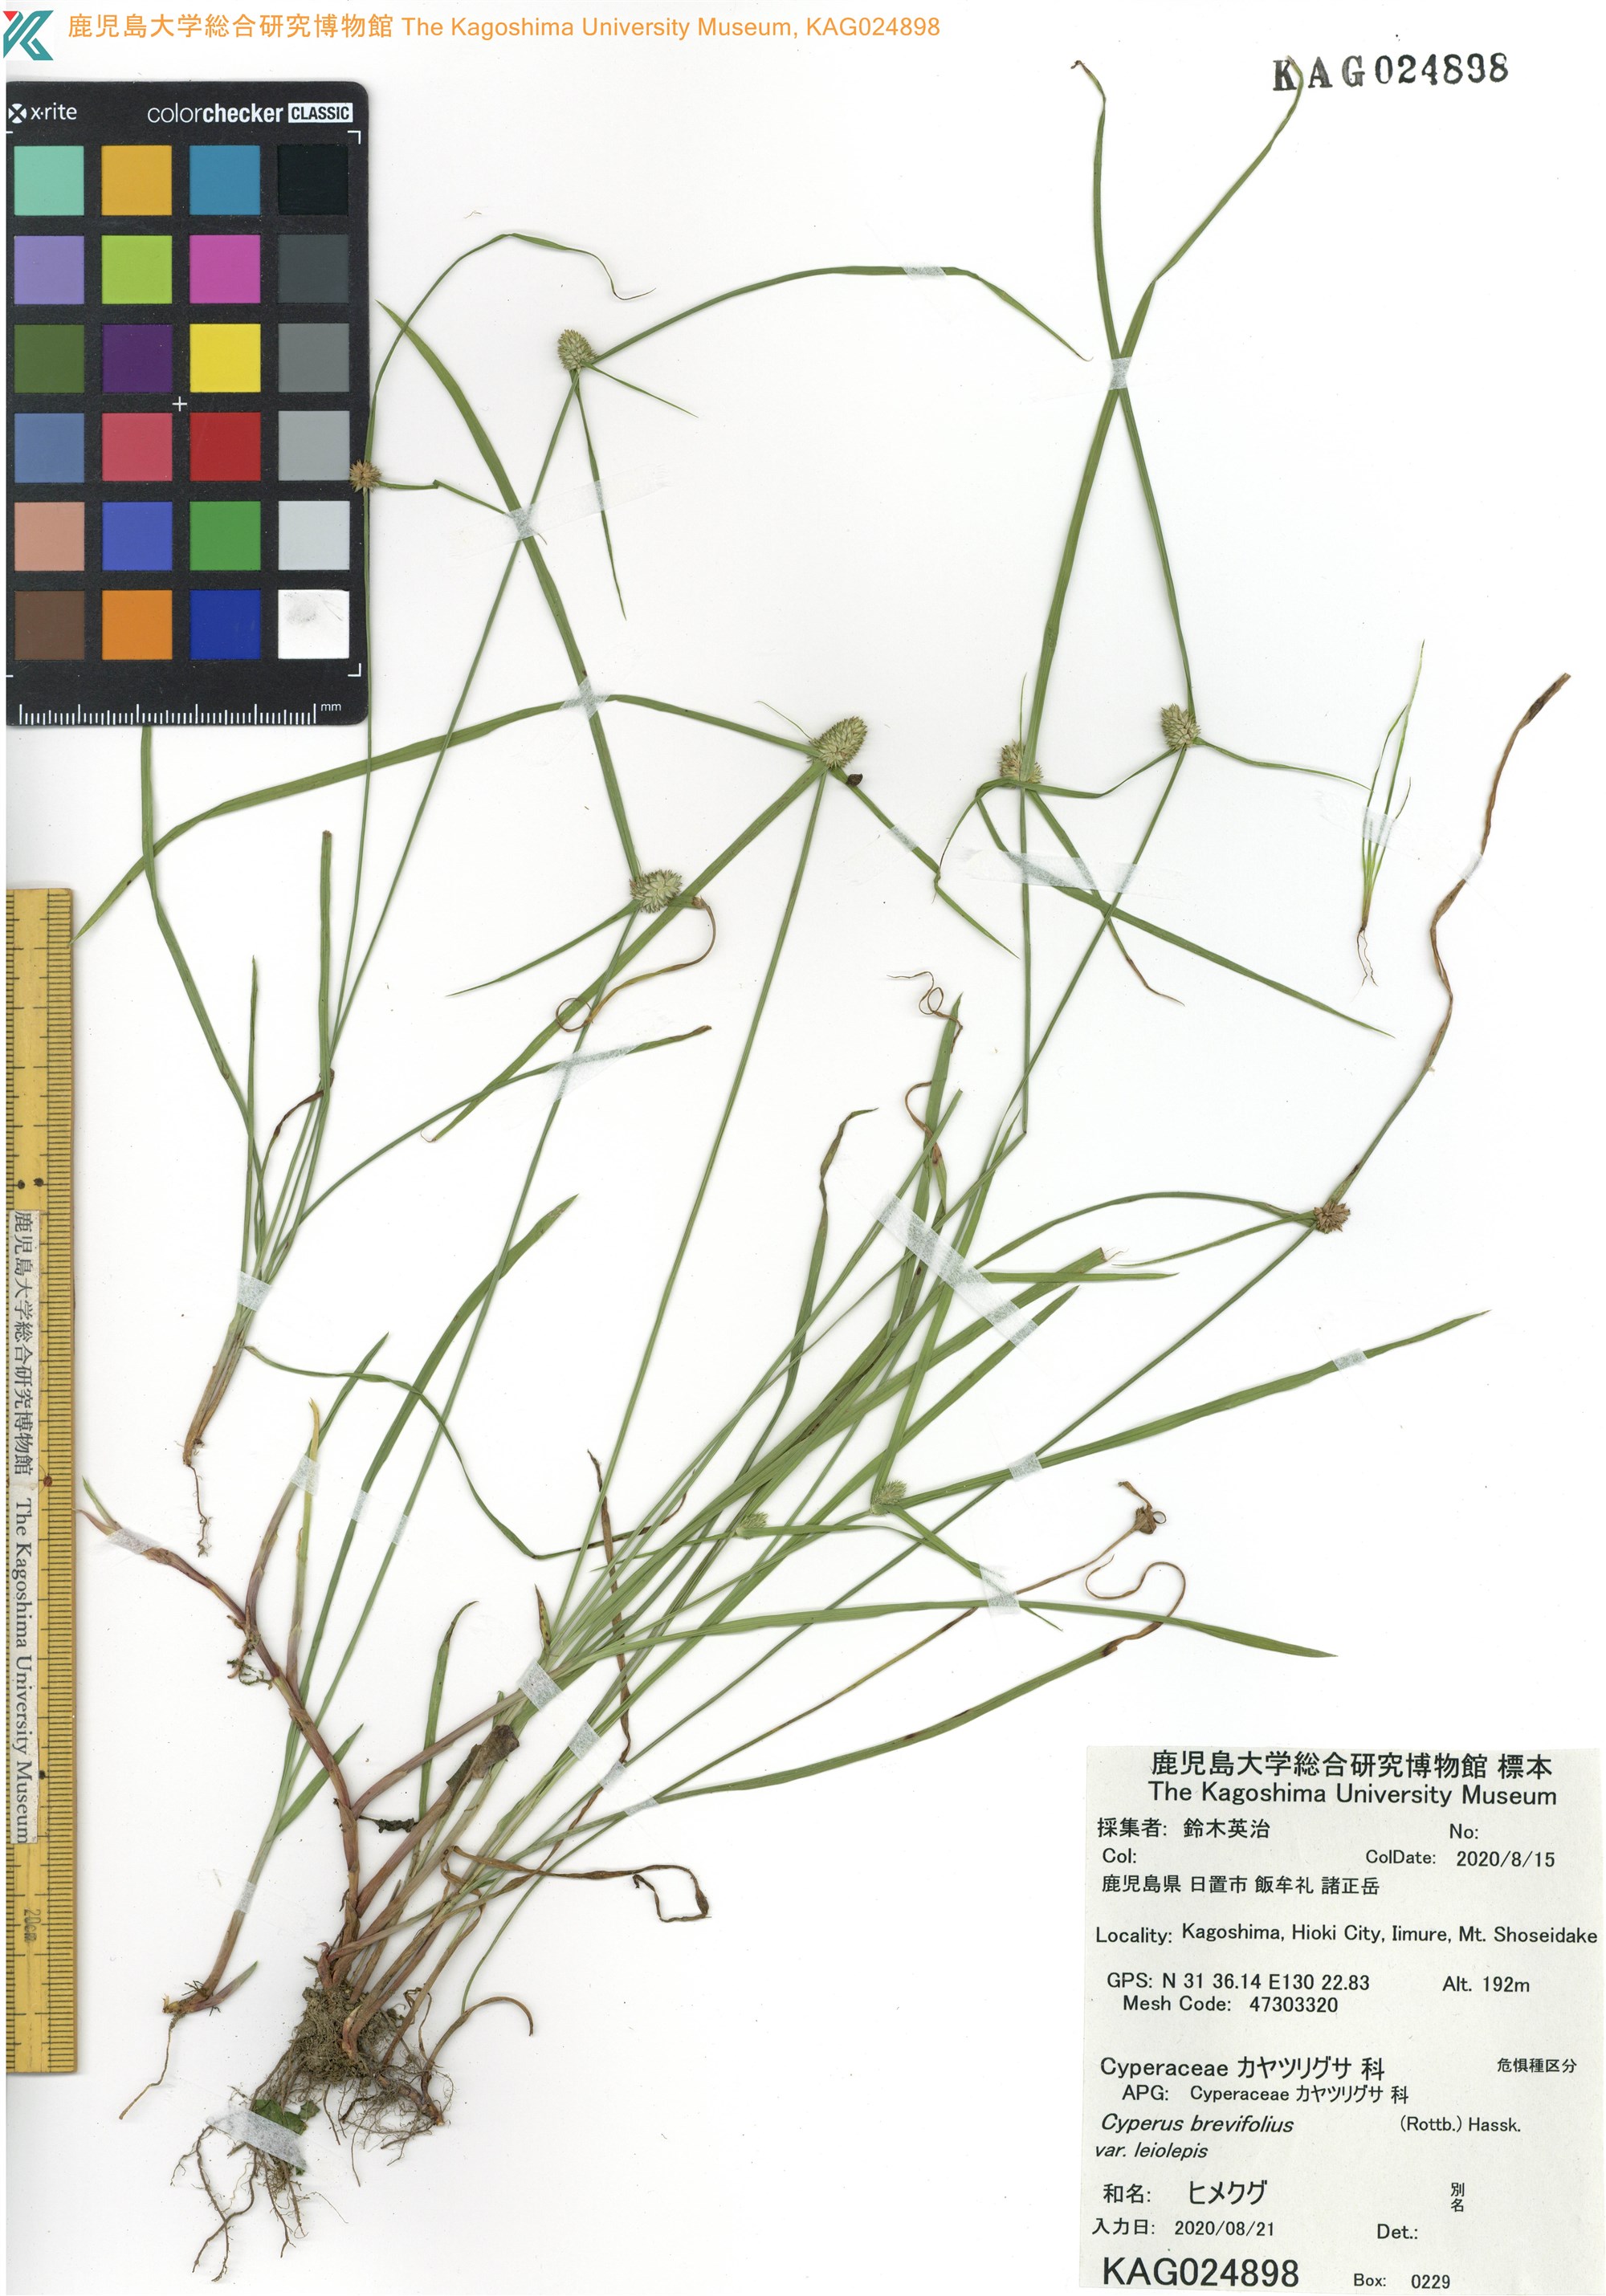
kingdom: Plantae
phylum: Tracheophyta
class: Liliopsida
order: Poales
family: Cyperaceae
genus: Cyperus
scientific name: Cyperus brevifolioides
